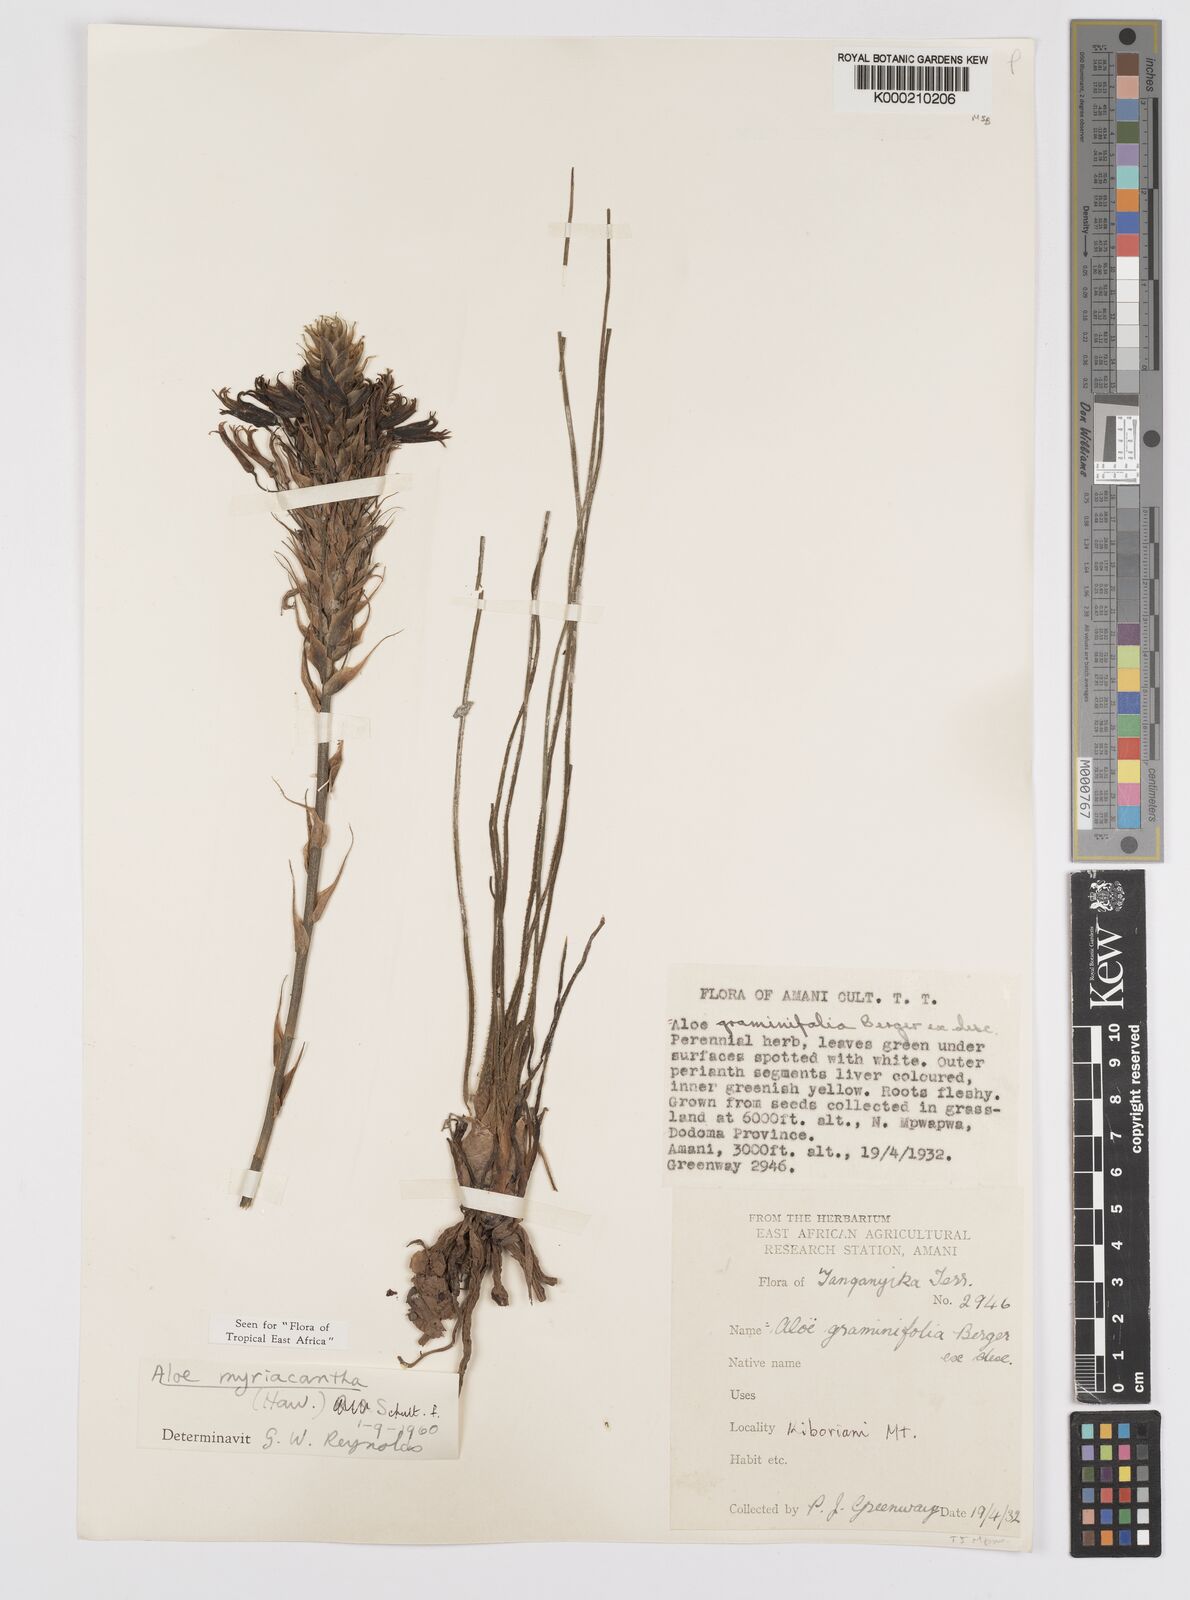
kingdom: Plantae
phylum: Tracheophyta
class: Liliopsida
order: Asparagales
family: Asphodelaceae
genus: Aloe
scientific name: Aloe
